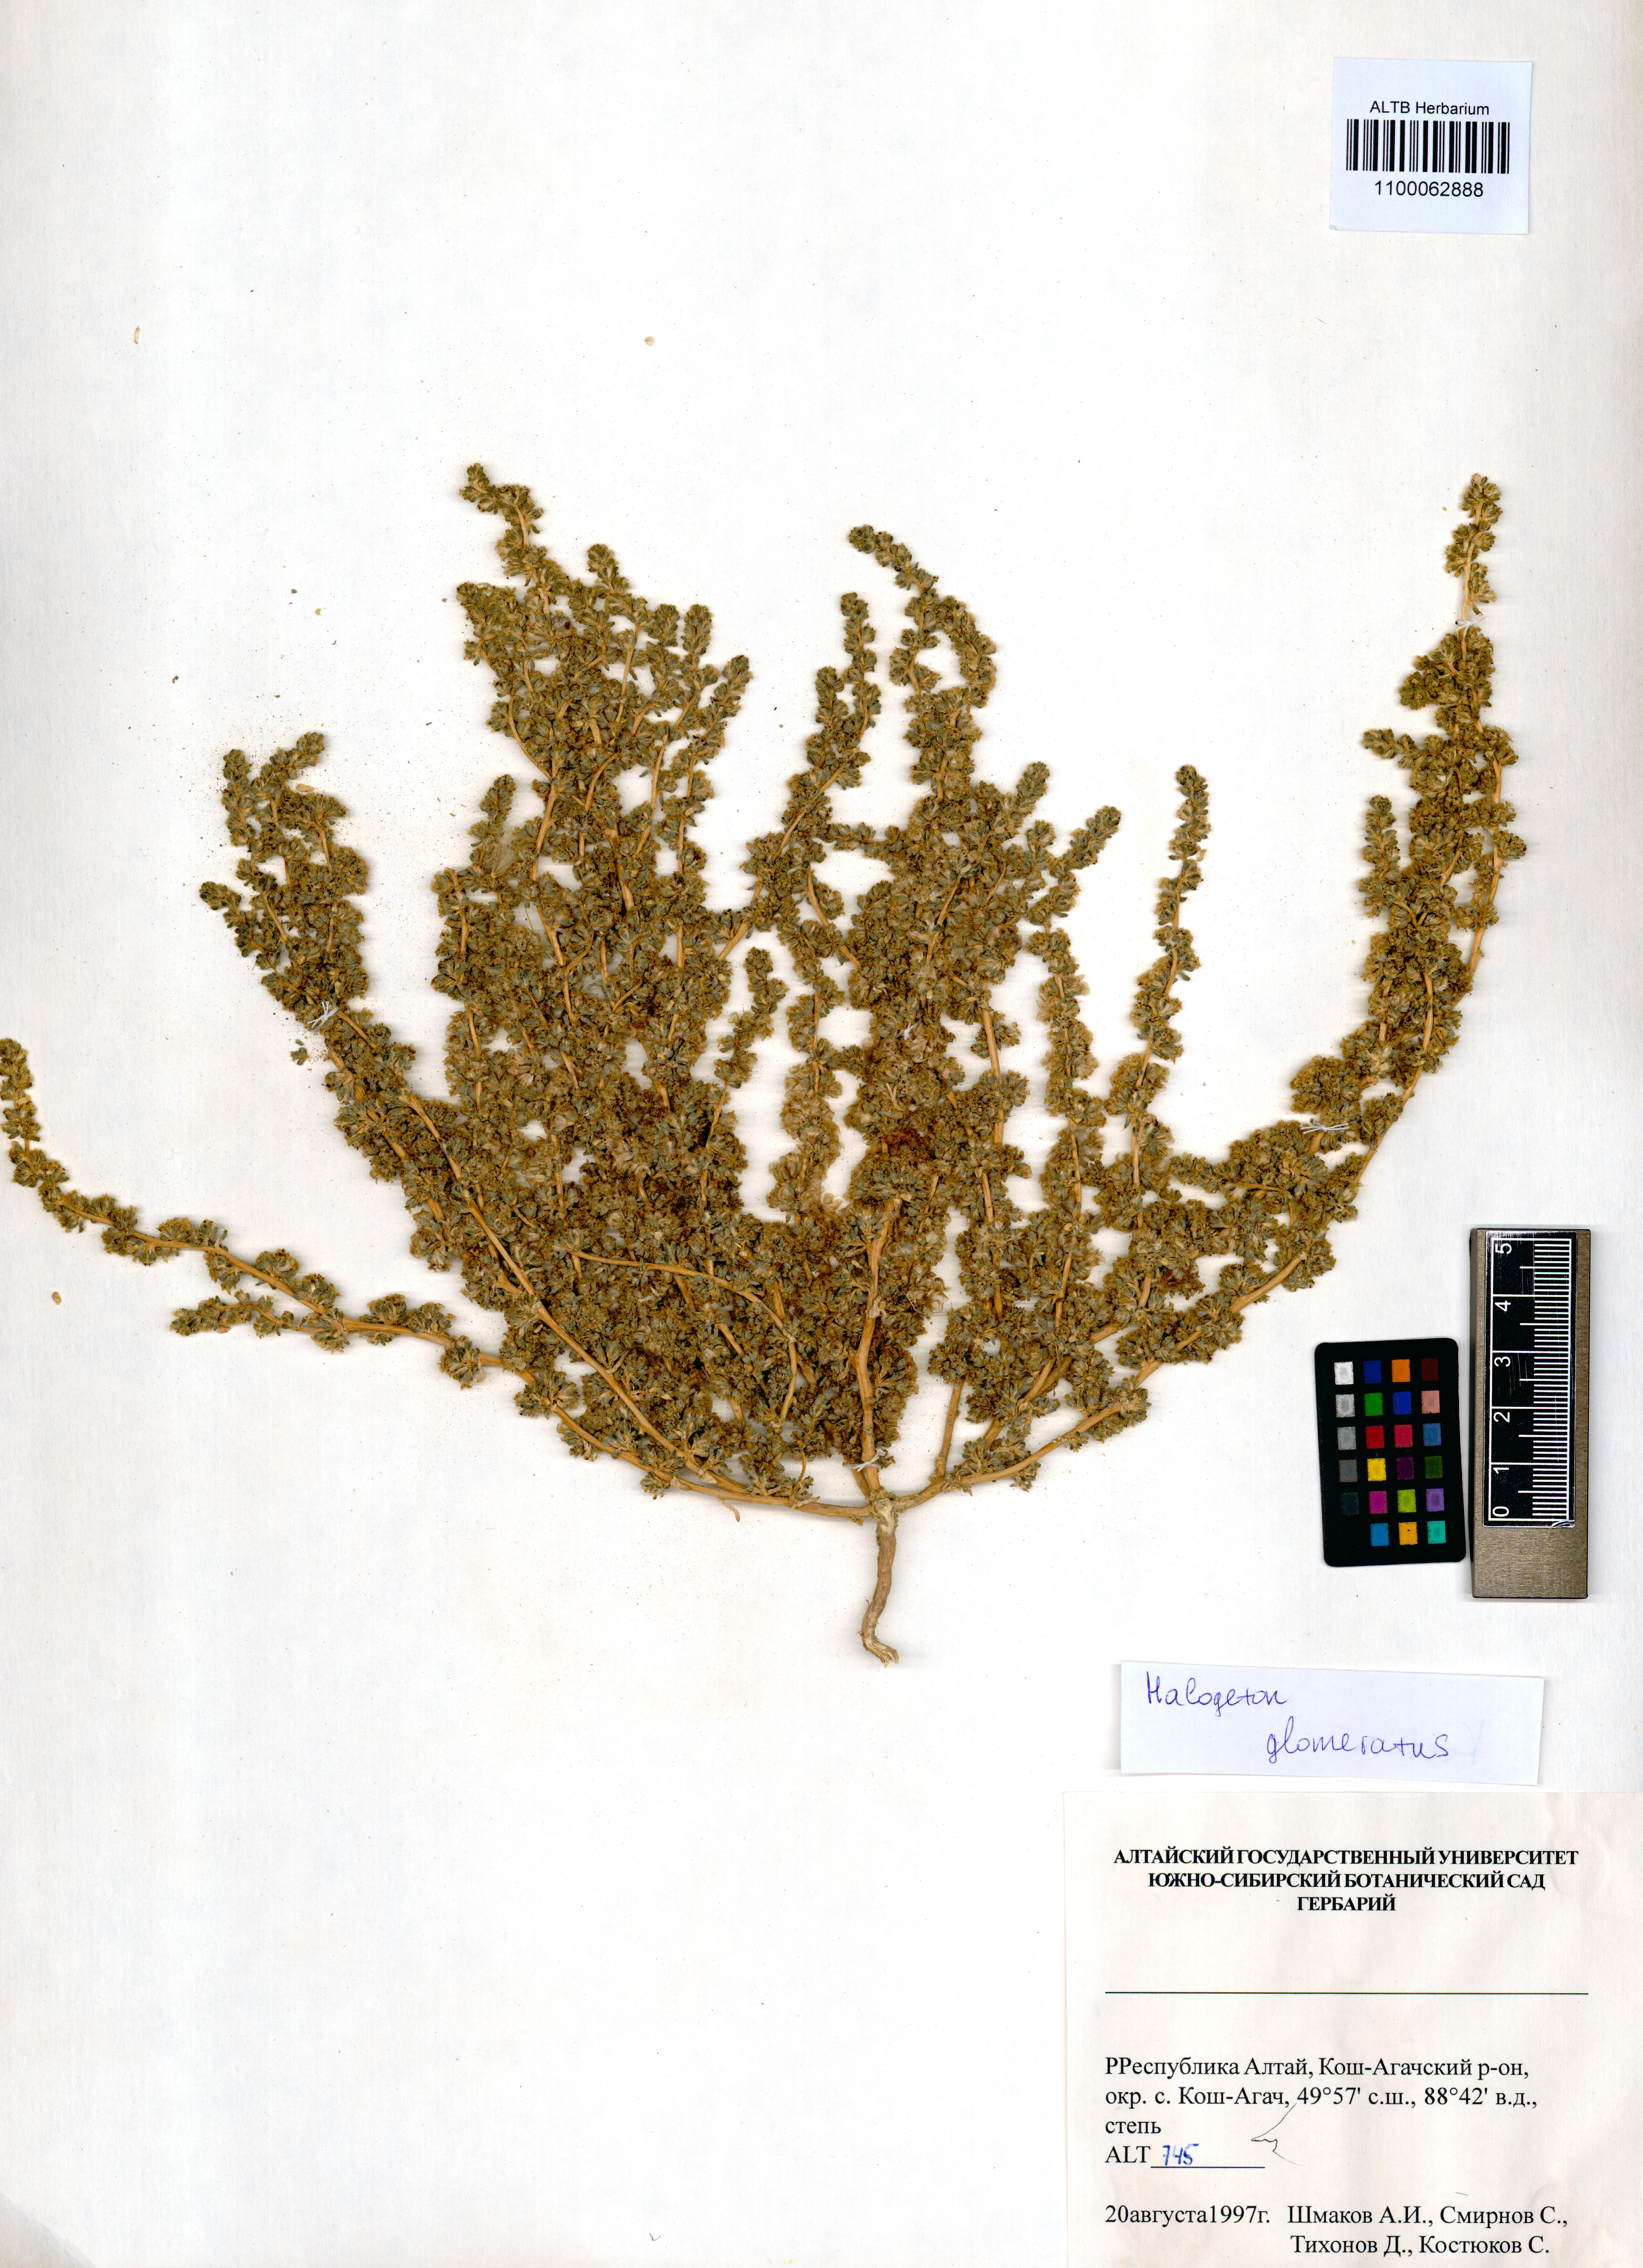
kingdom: Plantae
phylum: Tracheophyta
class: Magnoliopsida
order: Caryophyllales
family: Amaranthaceae
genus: Halogeton
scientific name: Halogeton glomeratus
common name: Saltlover
